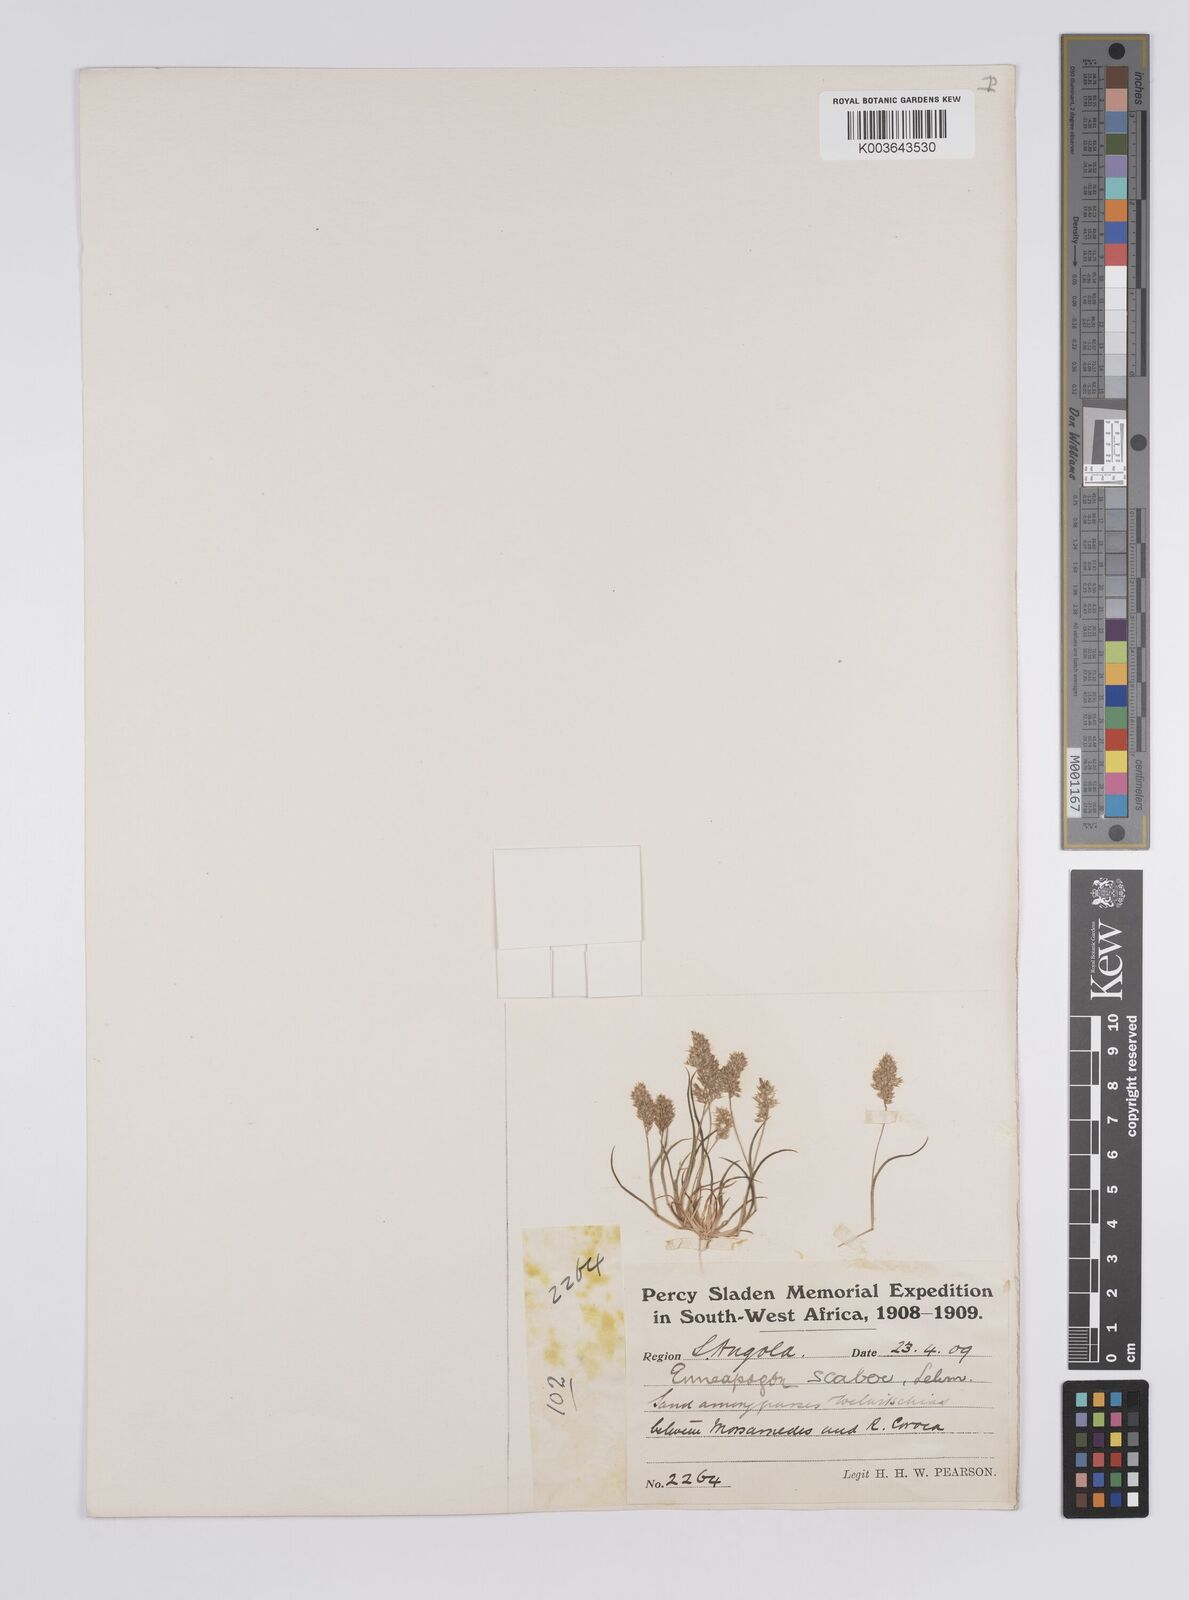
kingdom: Plantae
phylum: Tracheophyta
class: Liliopsida
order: Poales
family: Poaceae
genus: Enneapogon
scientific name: Enneapogon scaber
